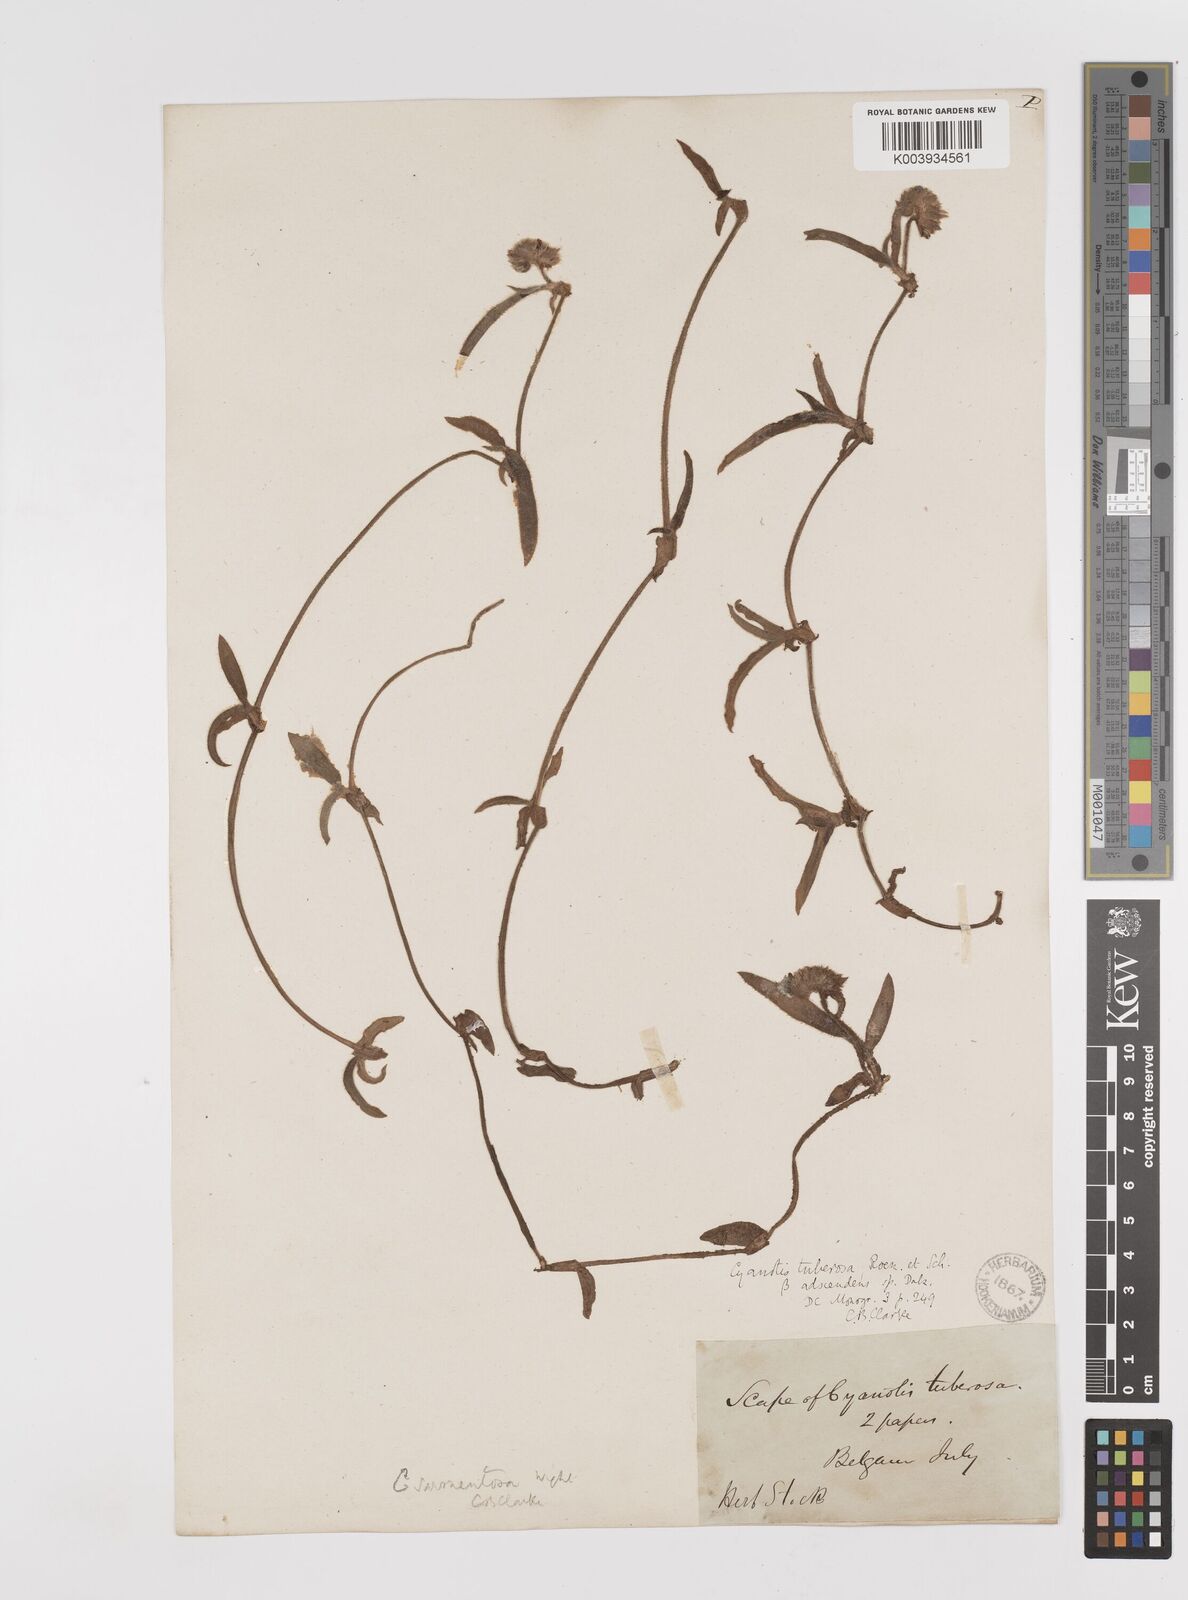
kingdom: Plantae
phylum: Tracheophyta
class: Liliopsida
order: Commelinales
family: Commelinaceae
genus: Cyanotis
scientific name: Cyanotis tuberosa
